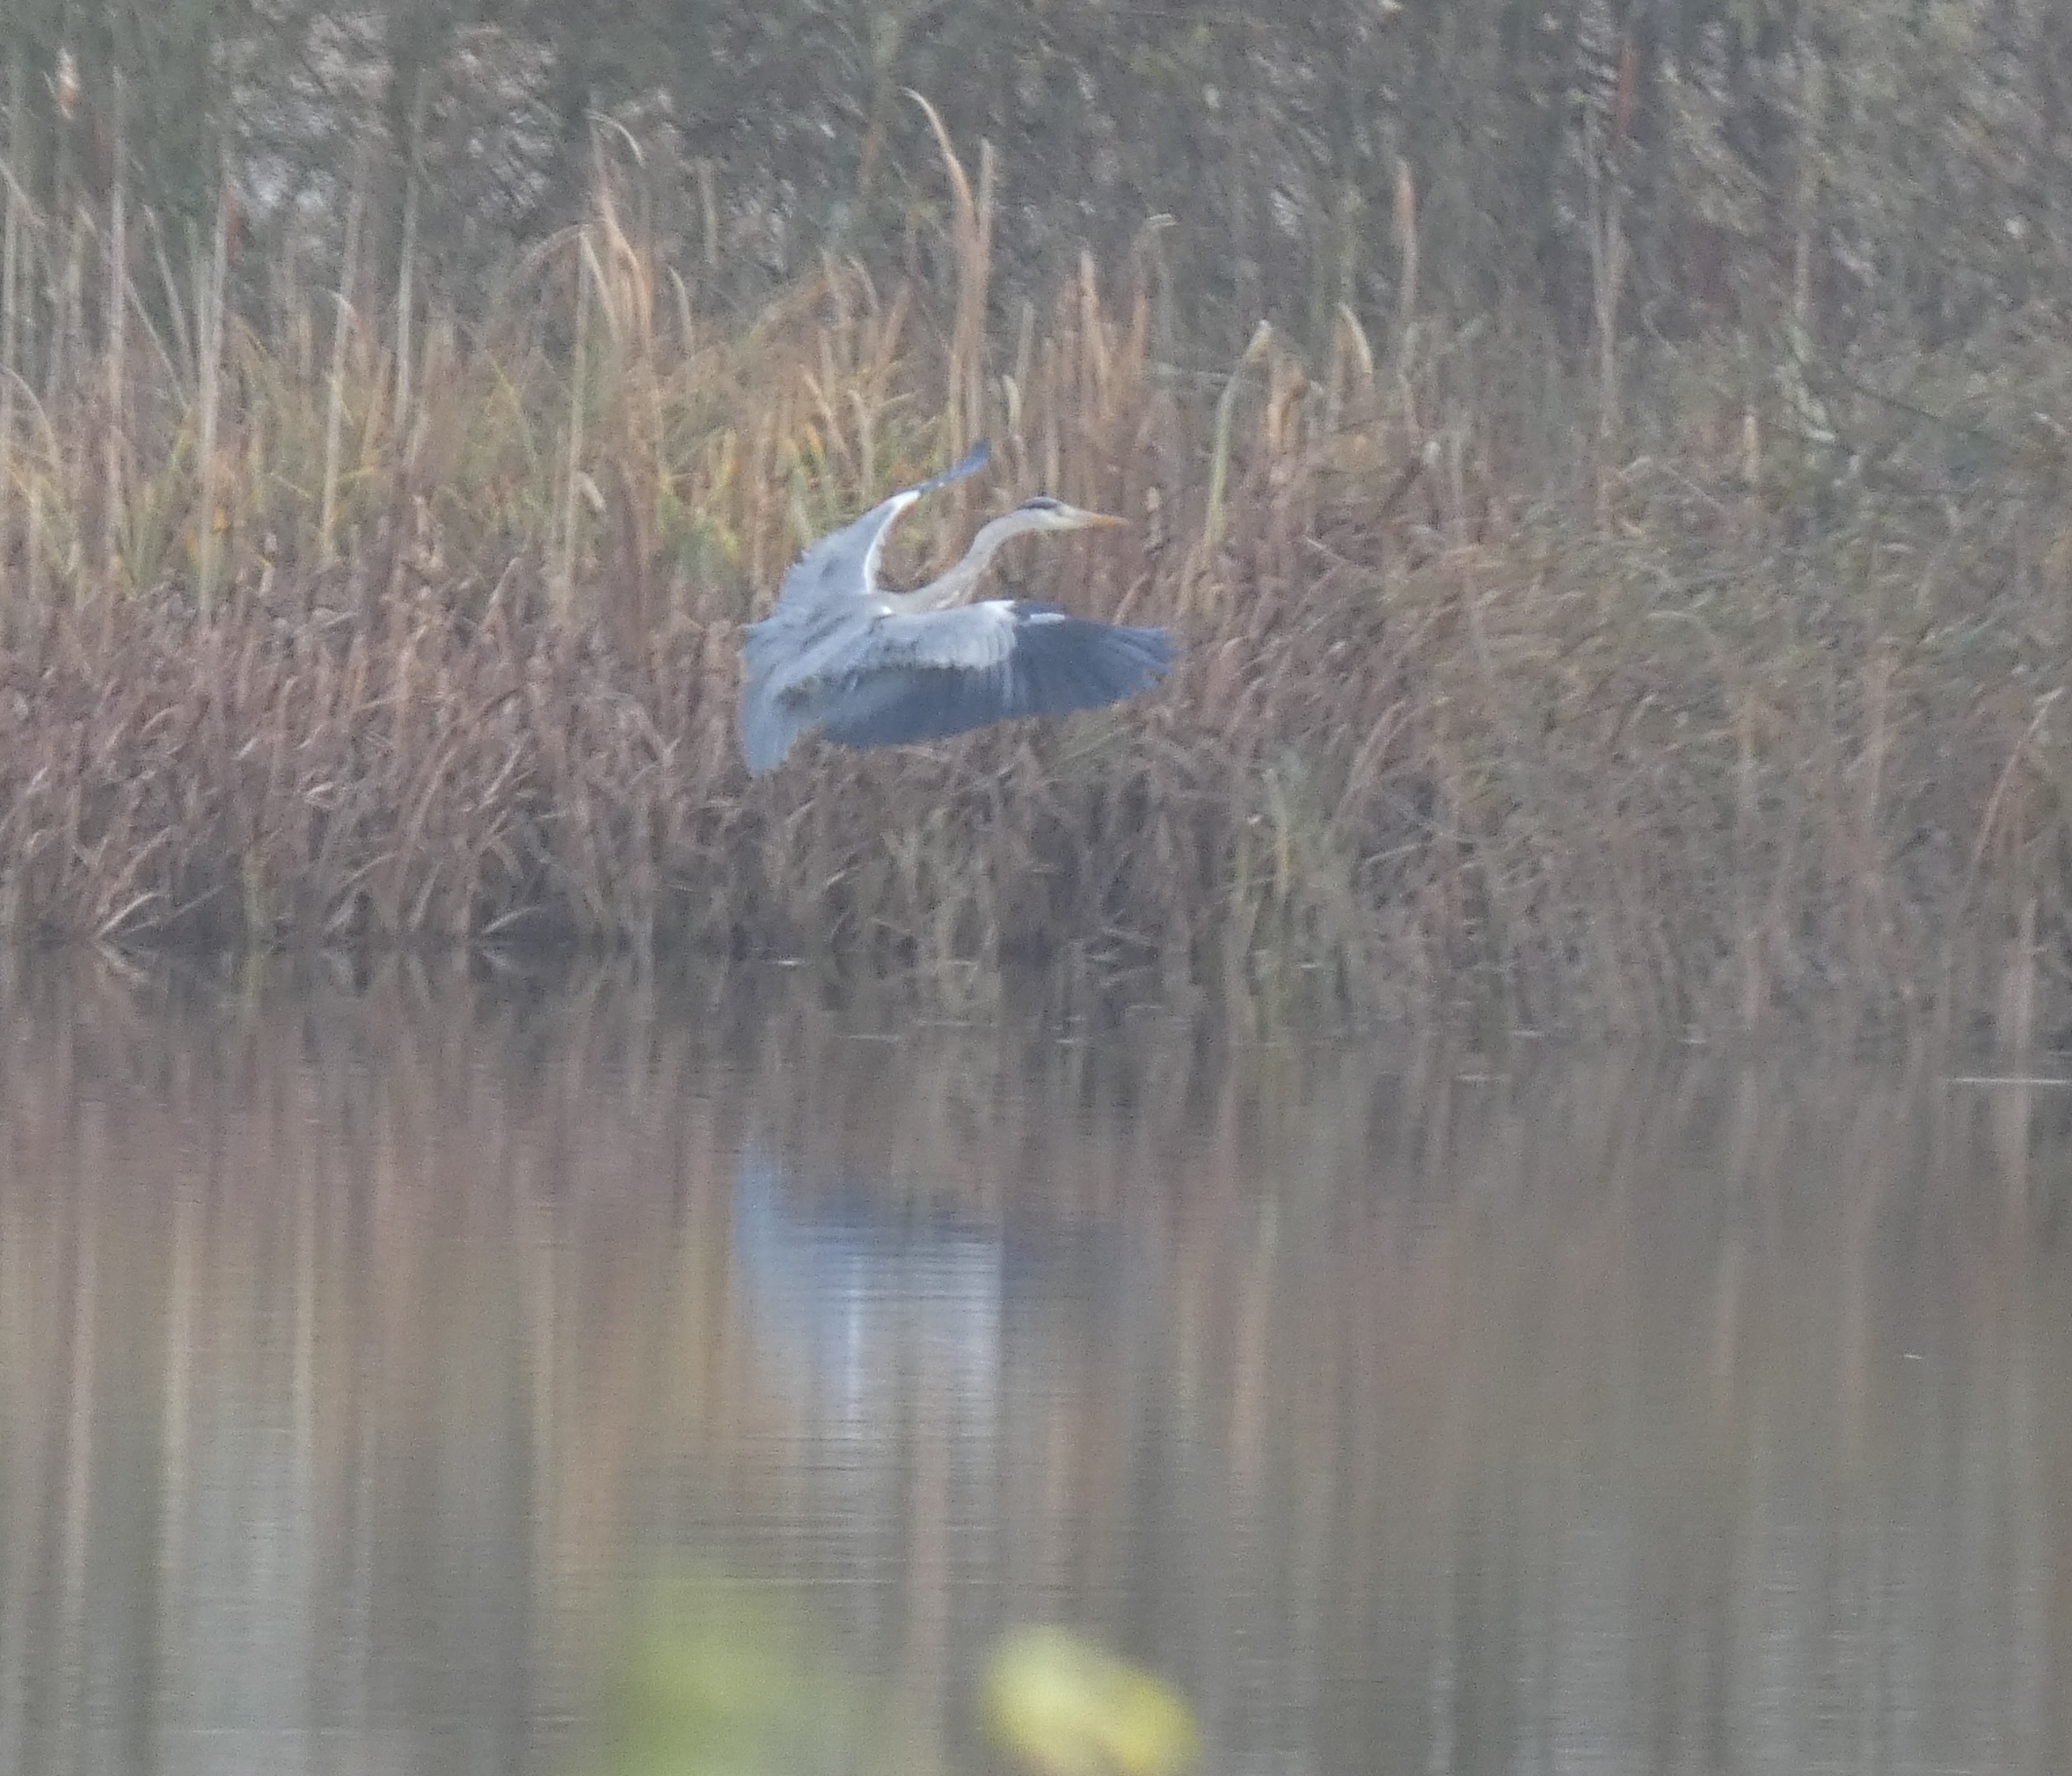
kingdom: Animalia
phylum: Chordata
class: Aves
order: Pelecaniformes
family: Ardeidae
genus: Ardea
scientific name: Ardea cinerea
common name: Fiskehejre
